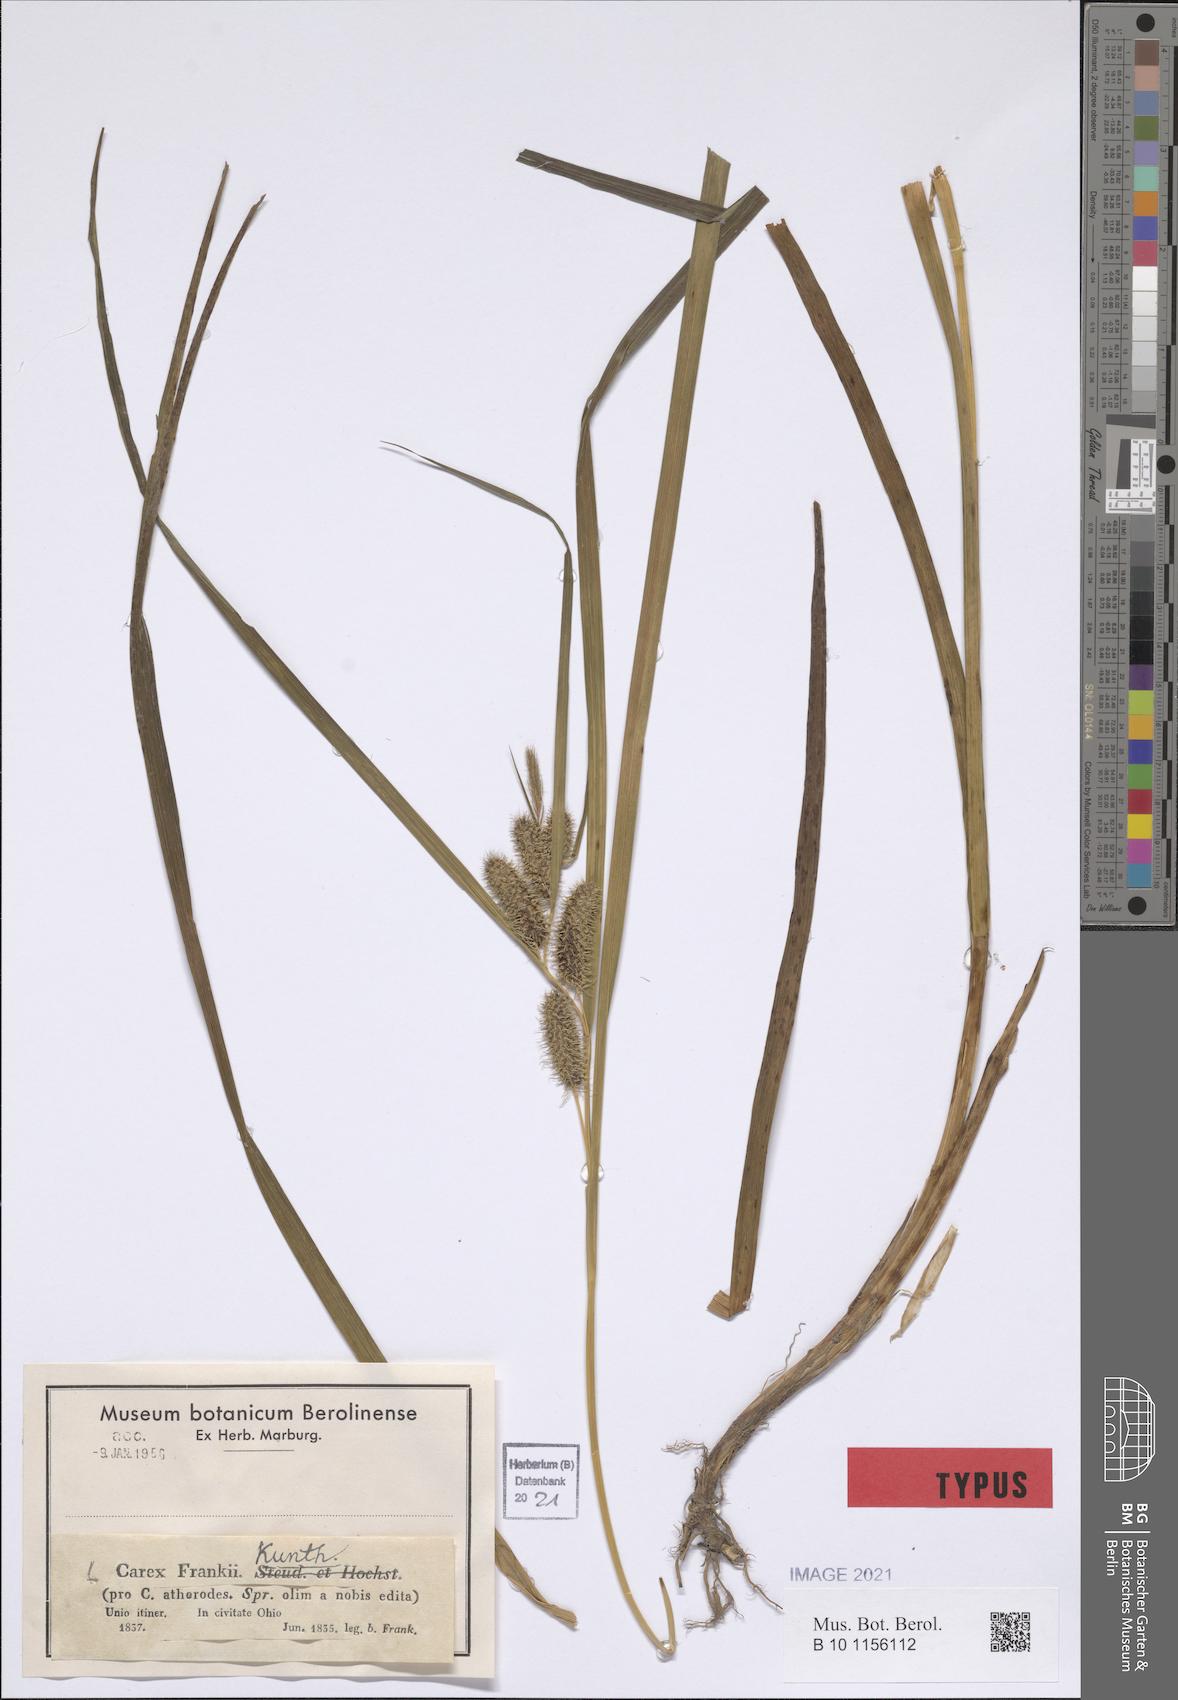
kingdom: Plantae
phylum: Tracheophyta
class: Liliopsida
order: Poales
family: Cyperaceae
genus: Carex
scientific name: Carex frankii
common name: Frank's sedge
